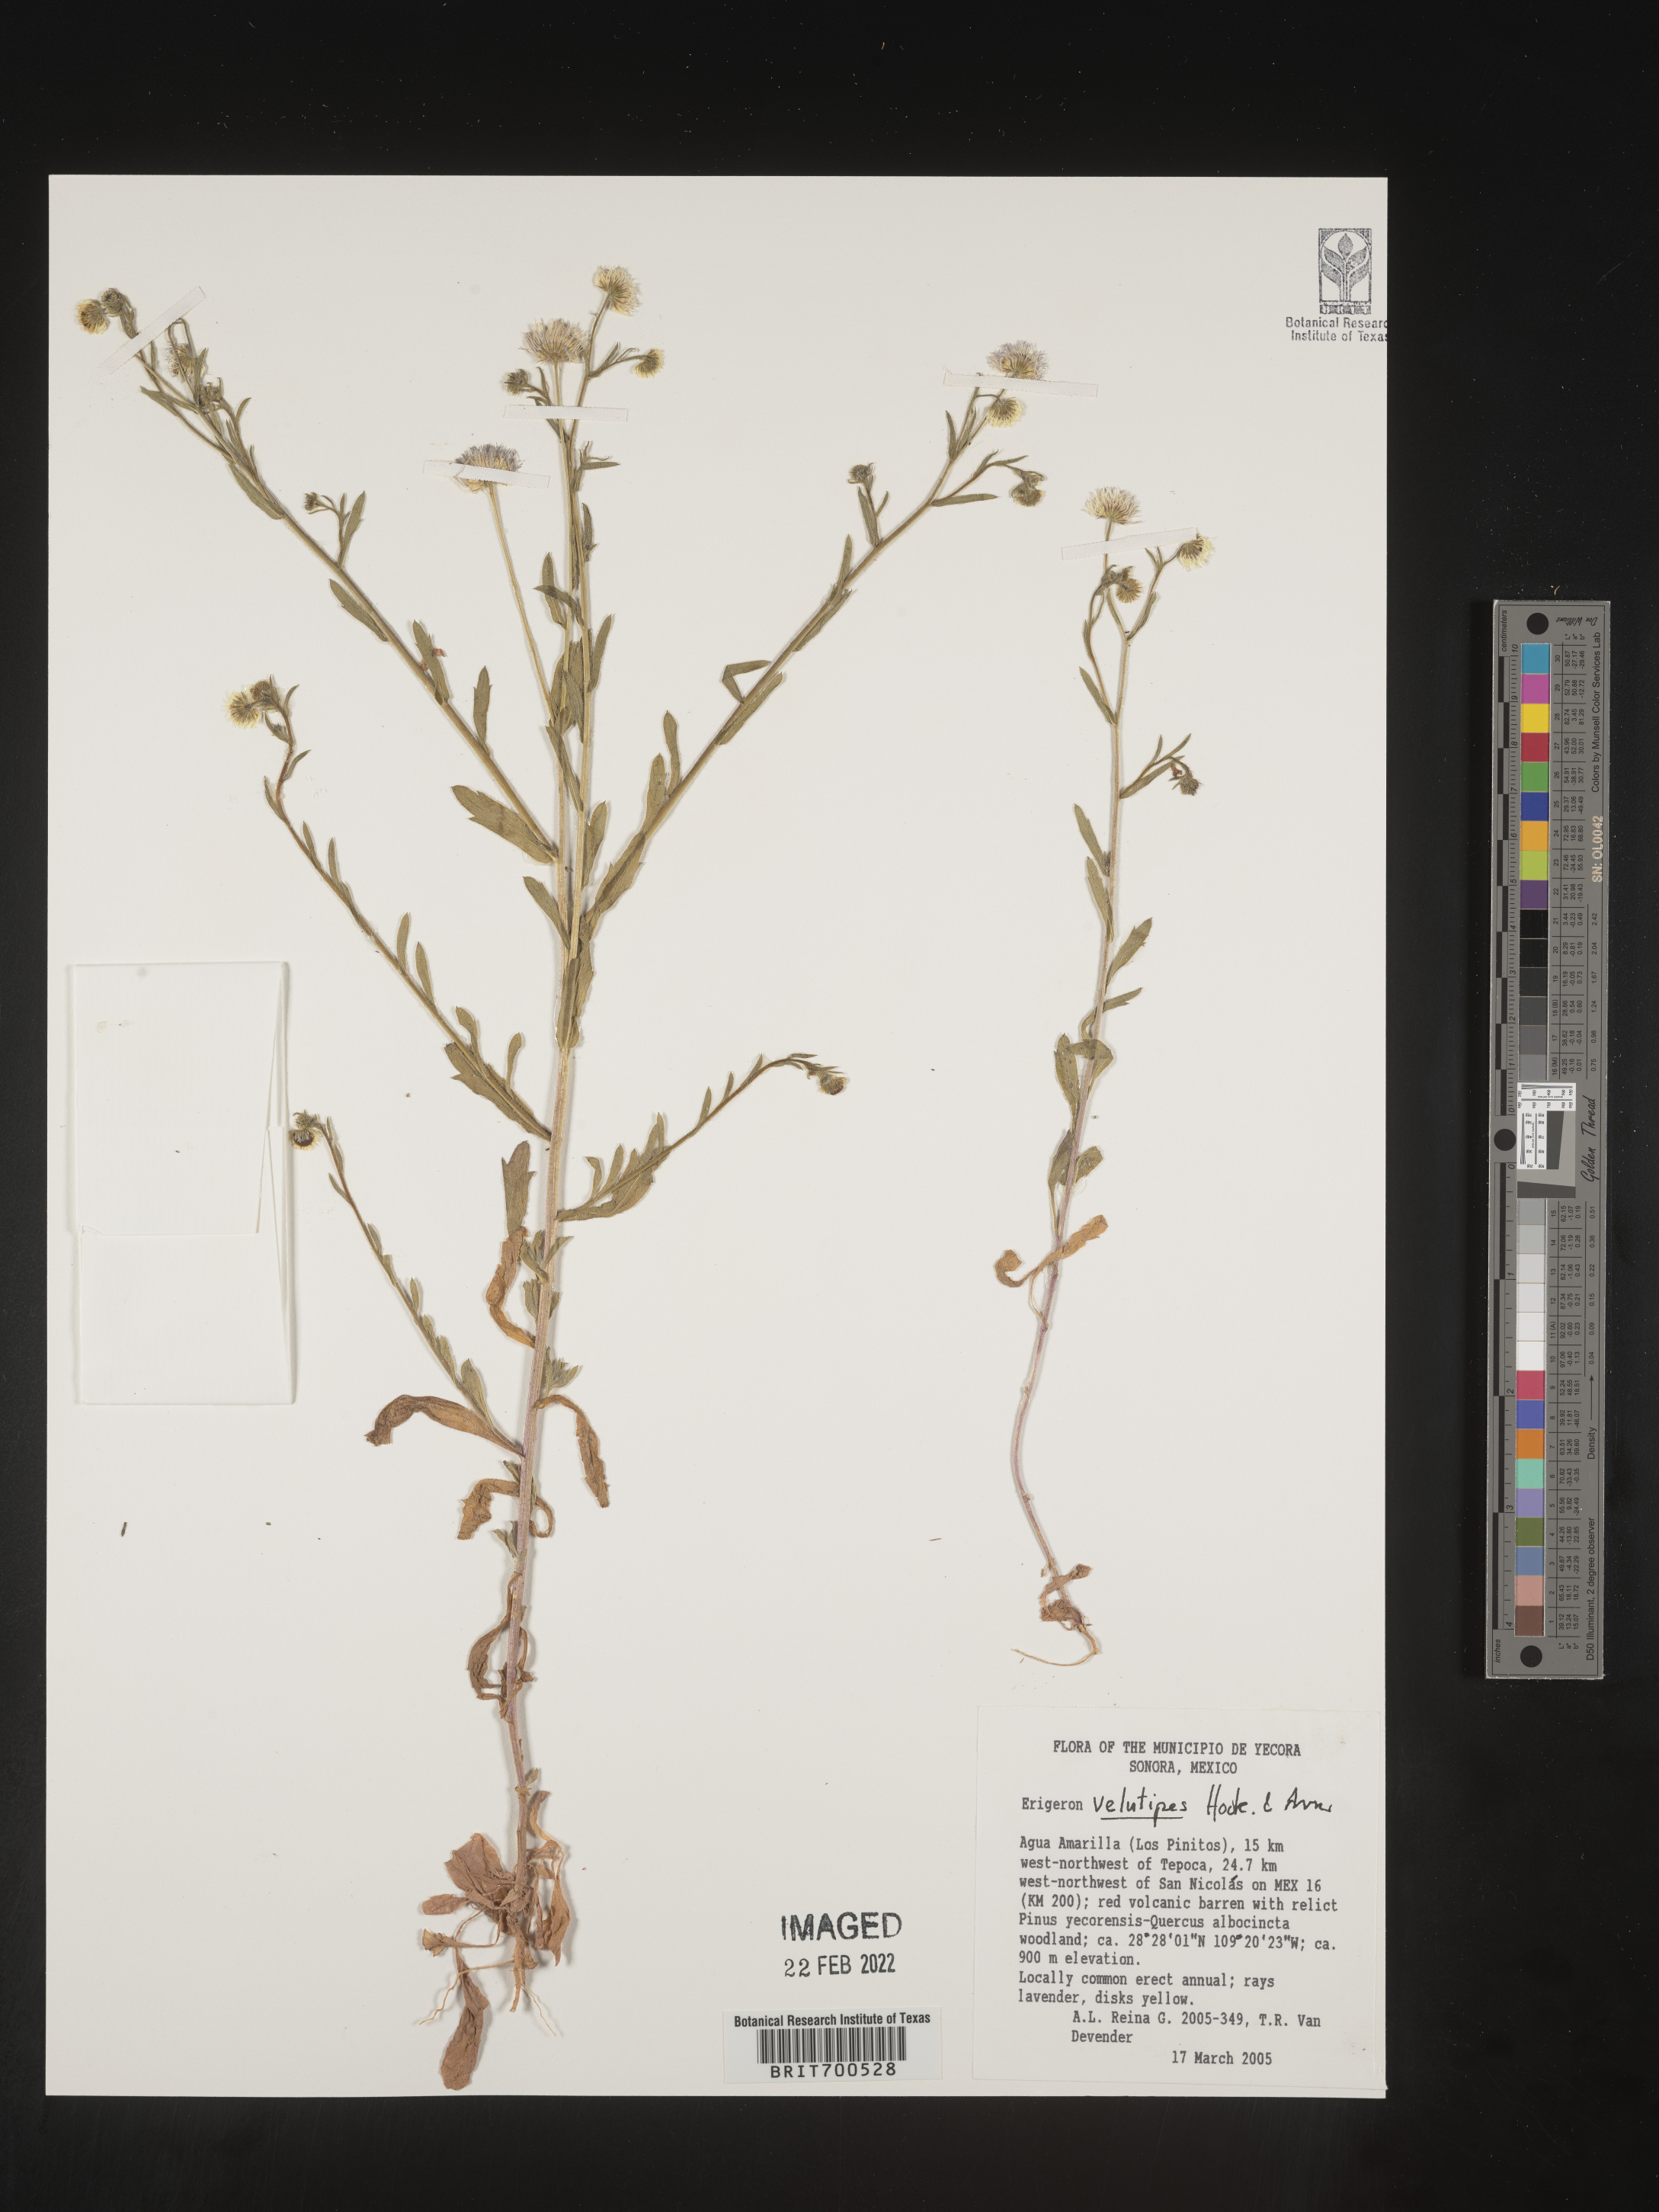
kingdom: Plantae
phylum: Tracheophyta
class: Magnoliopsida
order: Asterales
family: Asteraceae
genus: Erigeron
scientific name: Erigeron velutipes
